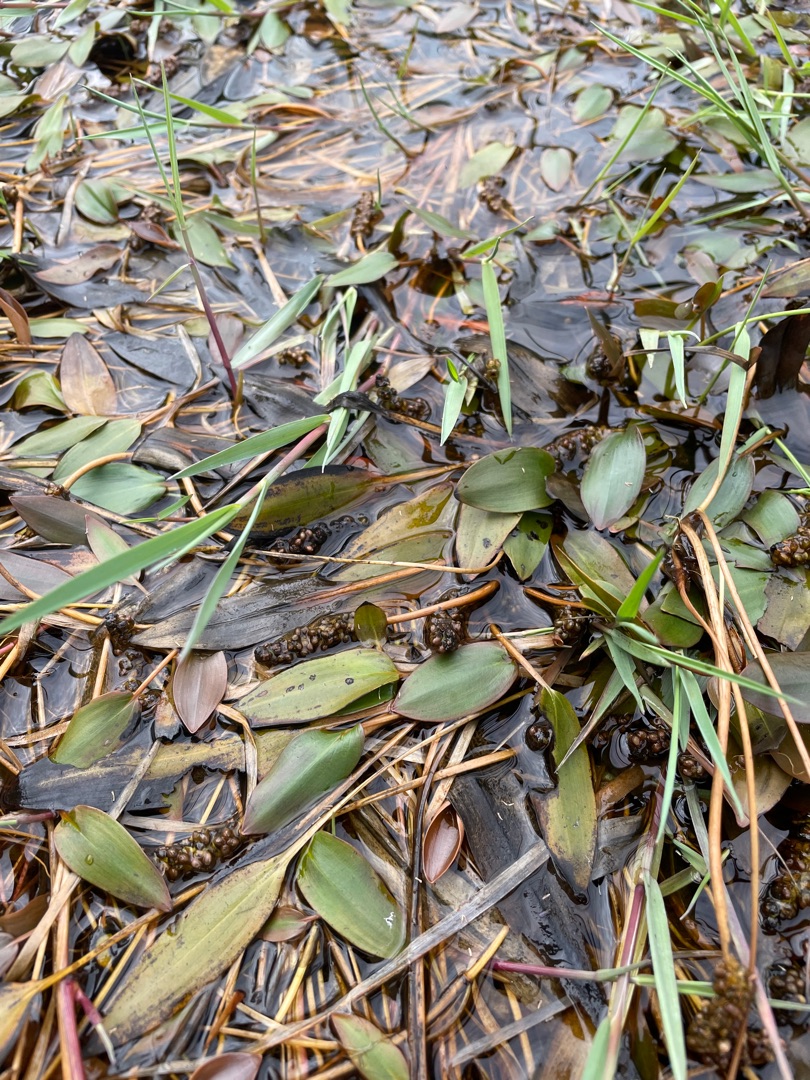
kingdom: Plantae
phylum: Tracheophyta
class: Liliopsida
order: Alismatales
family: Potamogetonaceae
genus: Potamogeton
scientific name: Potamogeton polygonifolius
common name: Aflangbladet vandaks
